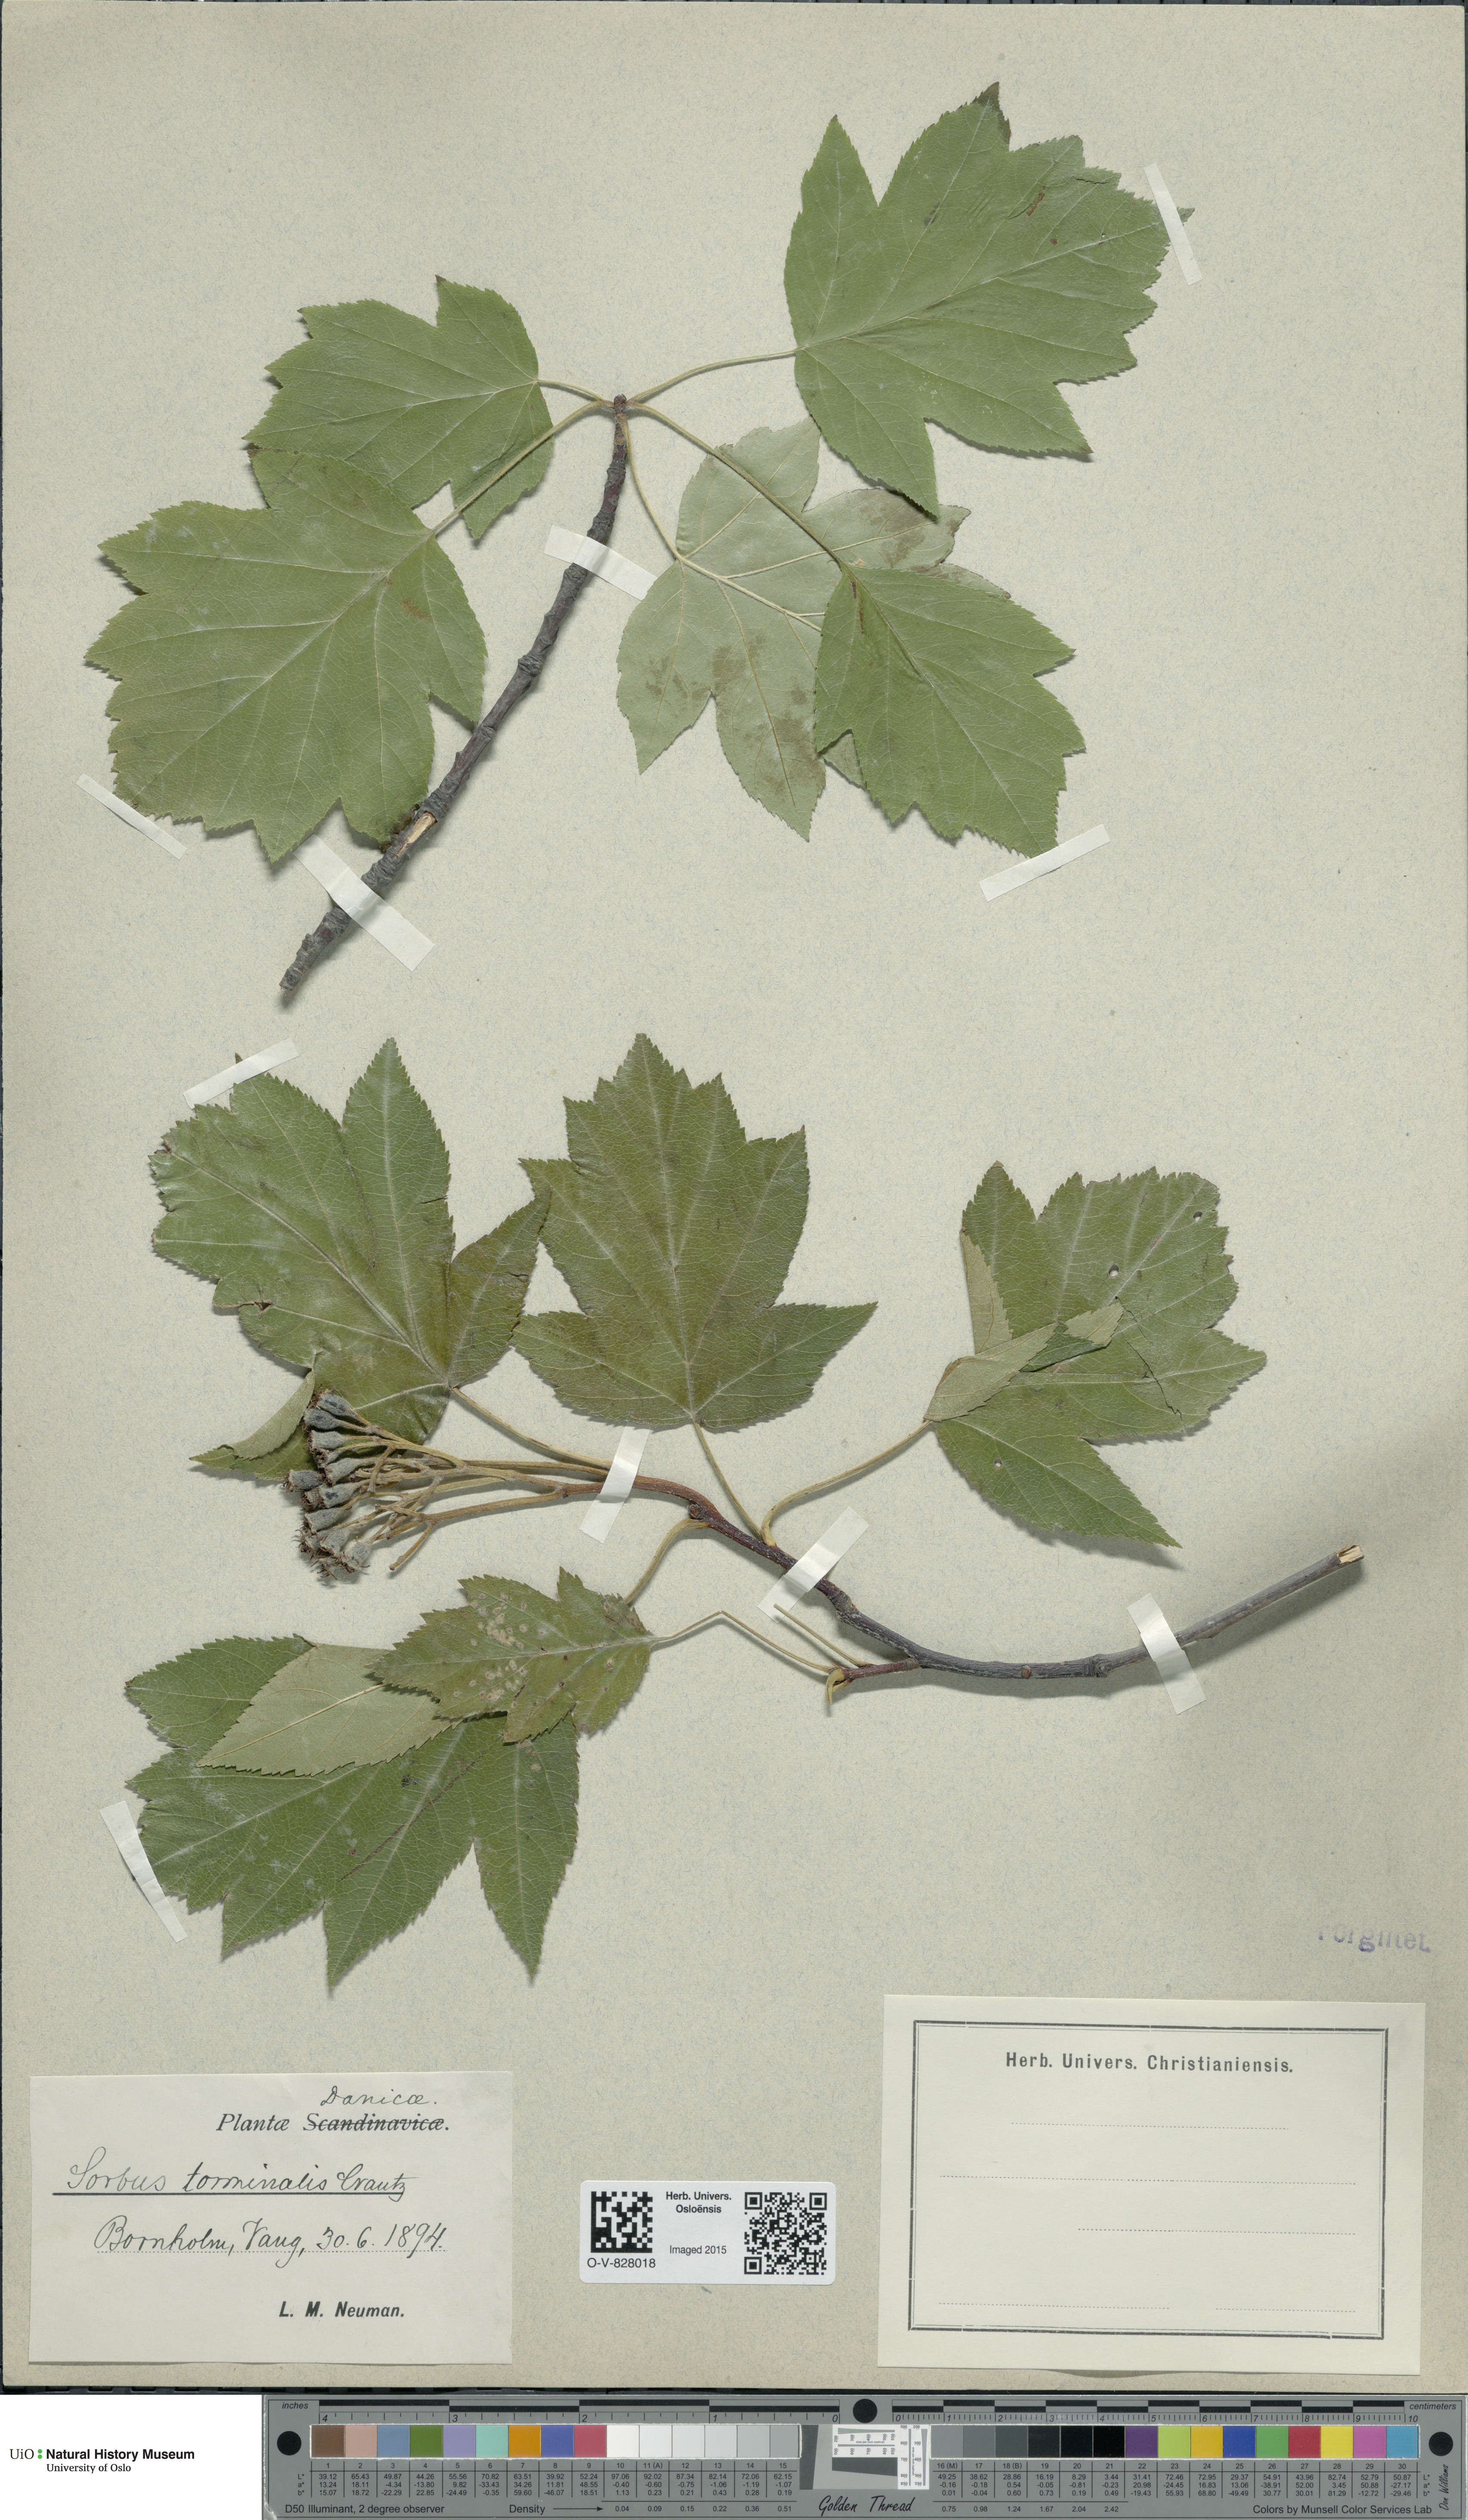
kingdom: Plantae
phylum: Tracheophyta
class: Magnoliopsida
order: Rosales
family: Rosaceae
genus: Torminalis
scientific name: Torminalis glaberrima
